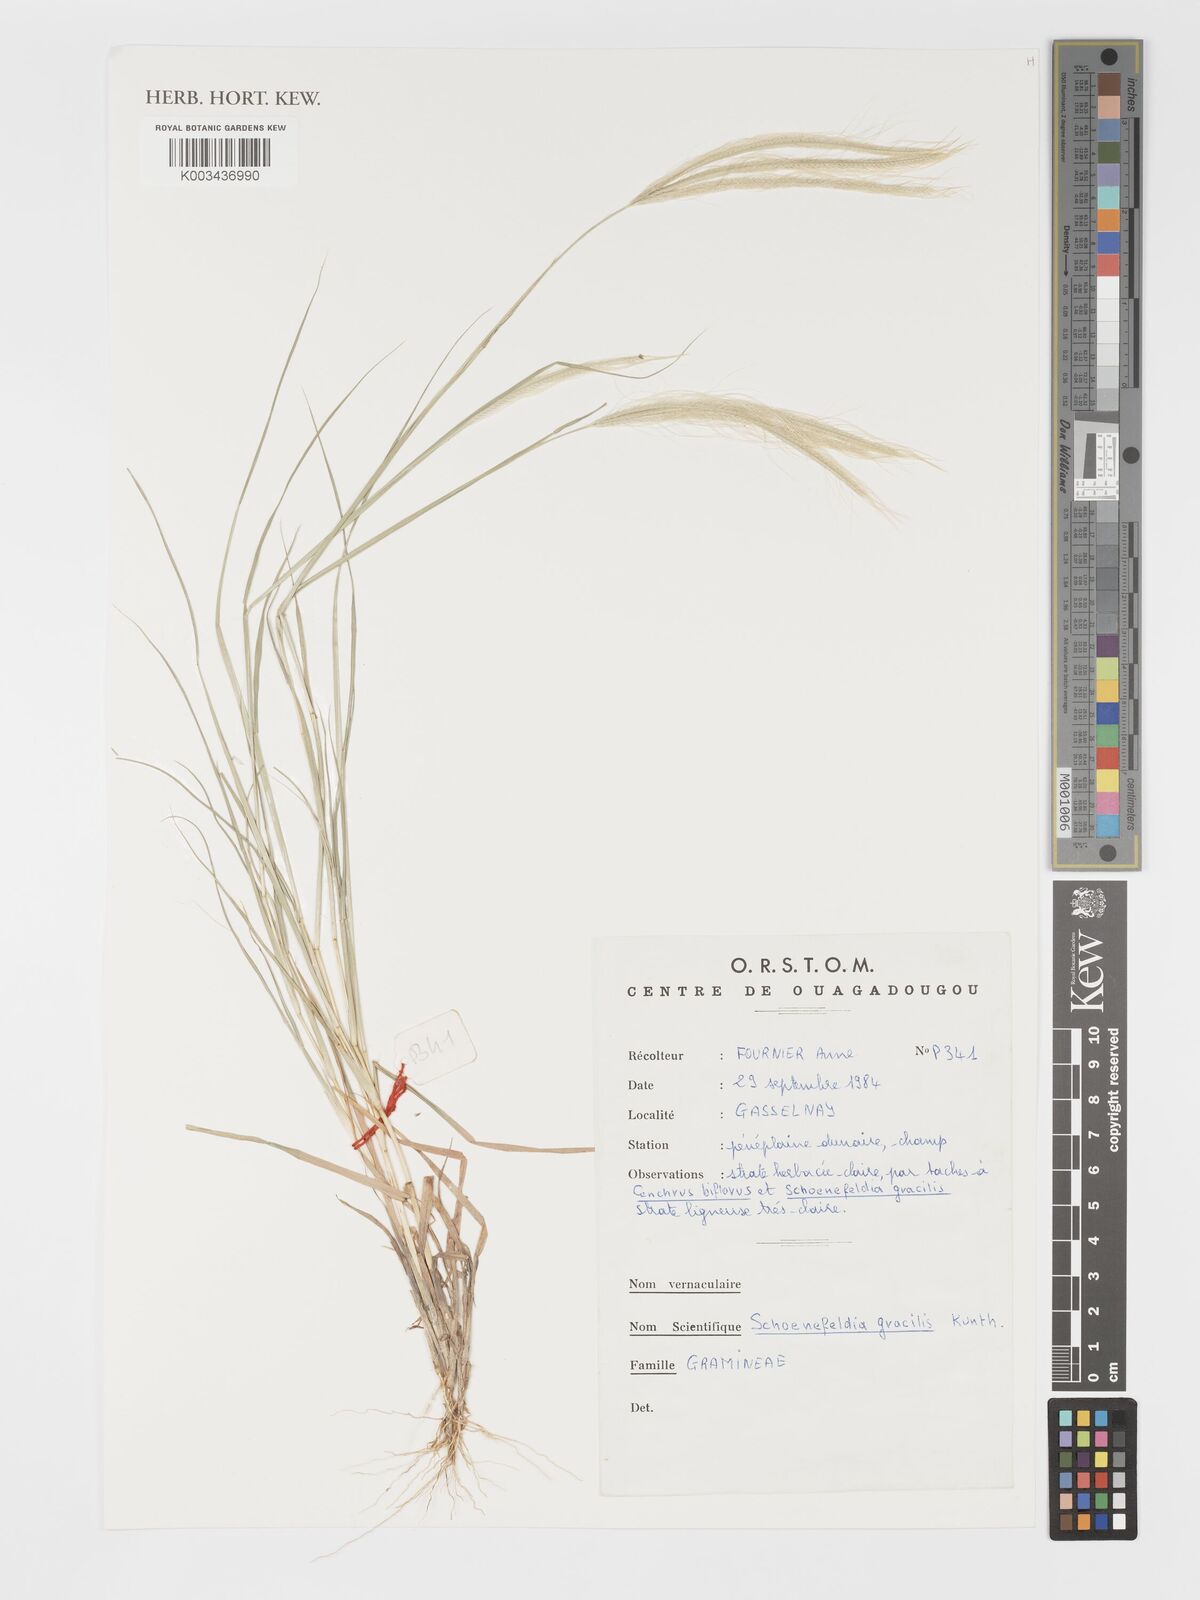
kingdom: Plantae
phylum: Tracheophyta
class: Liliopsida
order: Poales
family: Poaceae
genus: Schoenefeldia
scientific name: Schoenefeldia gracilis
